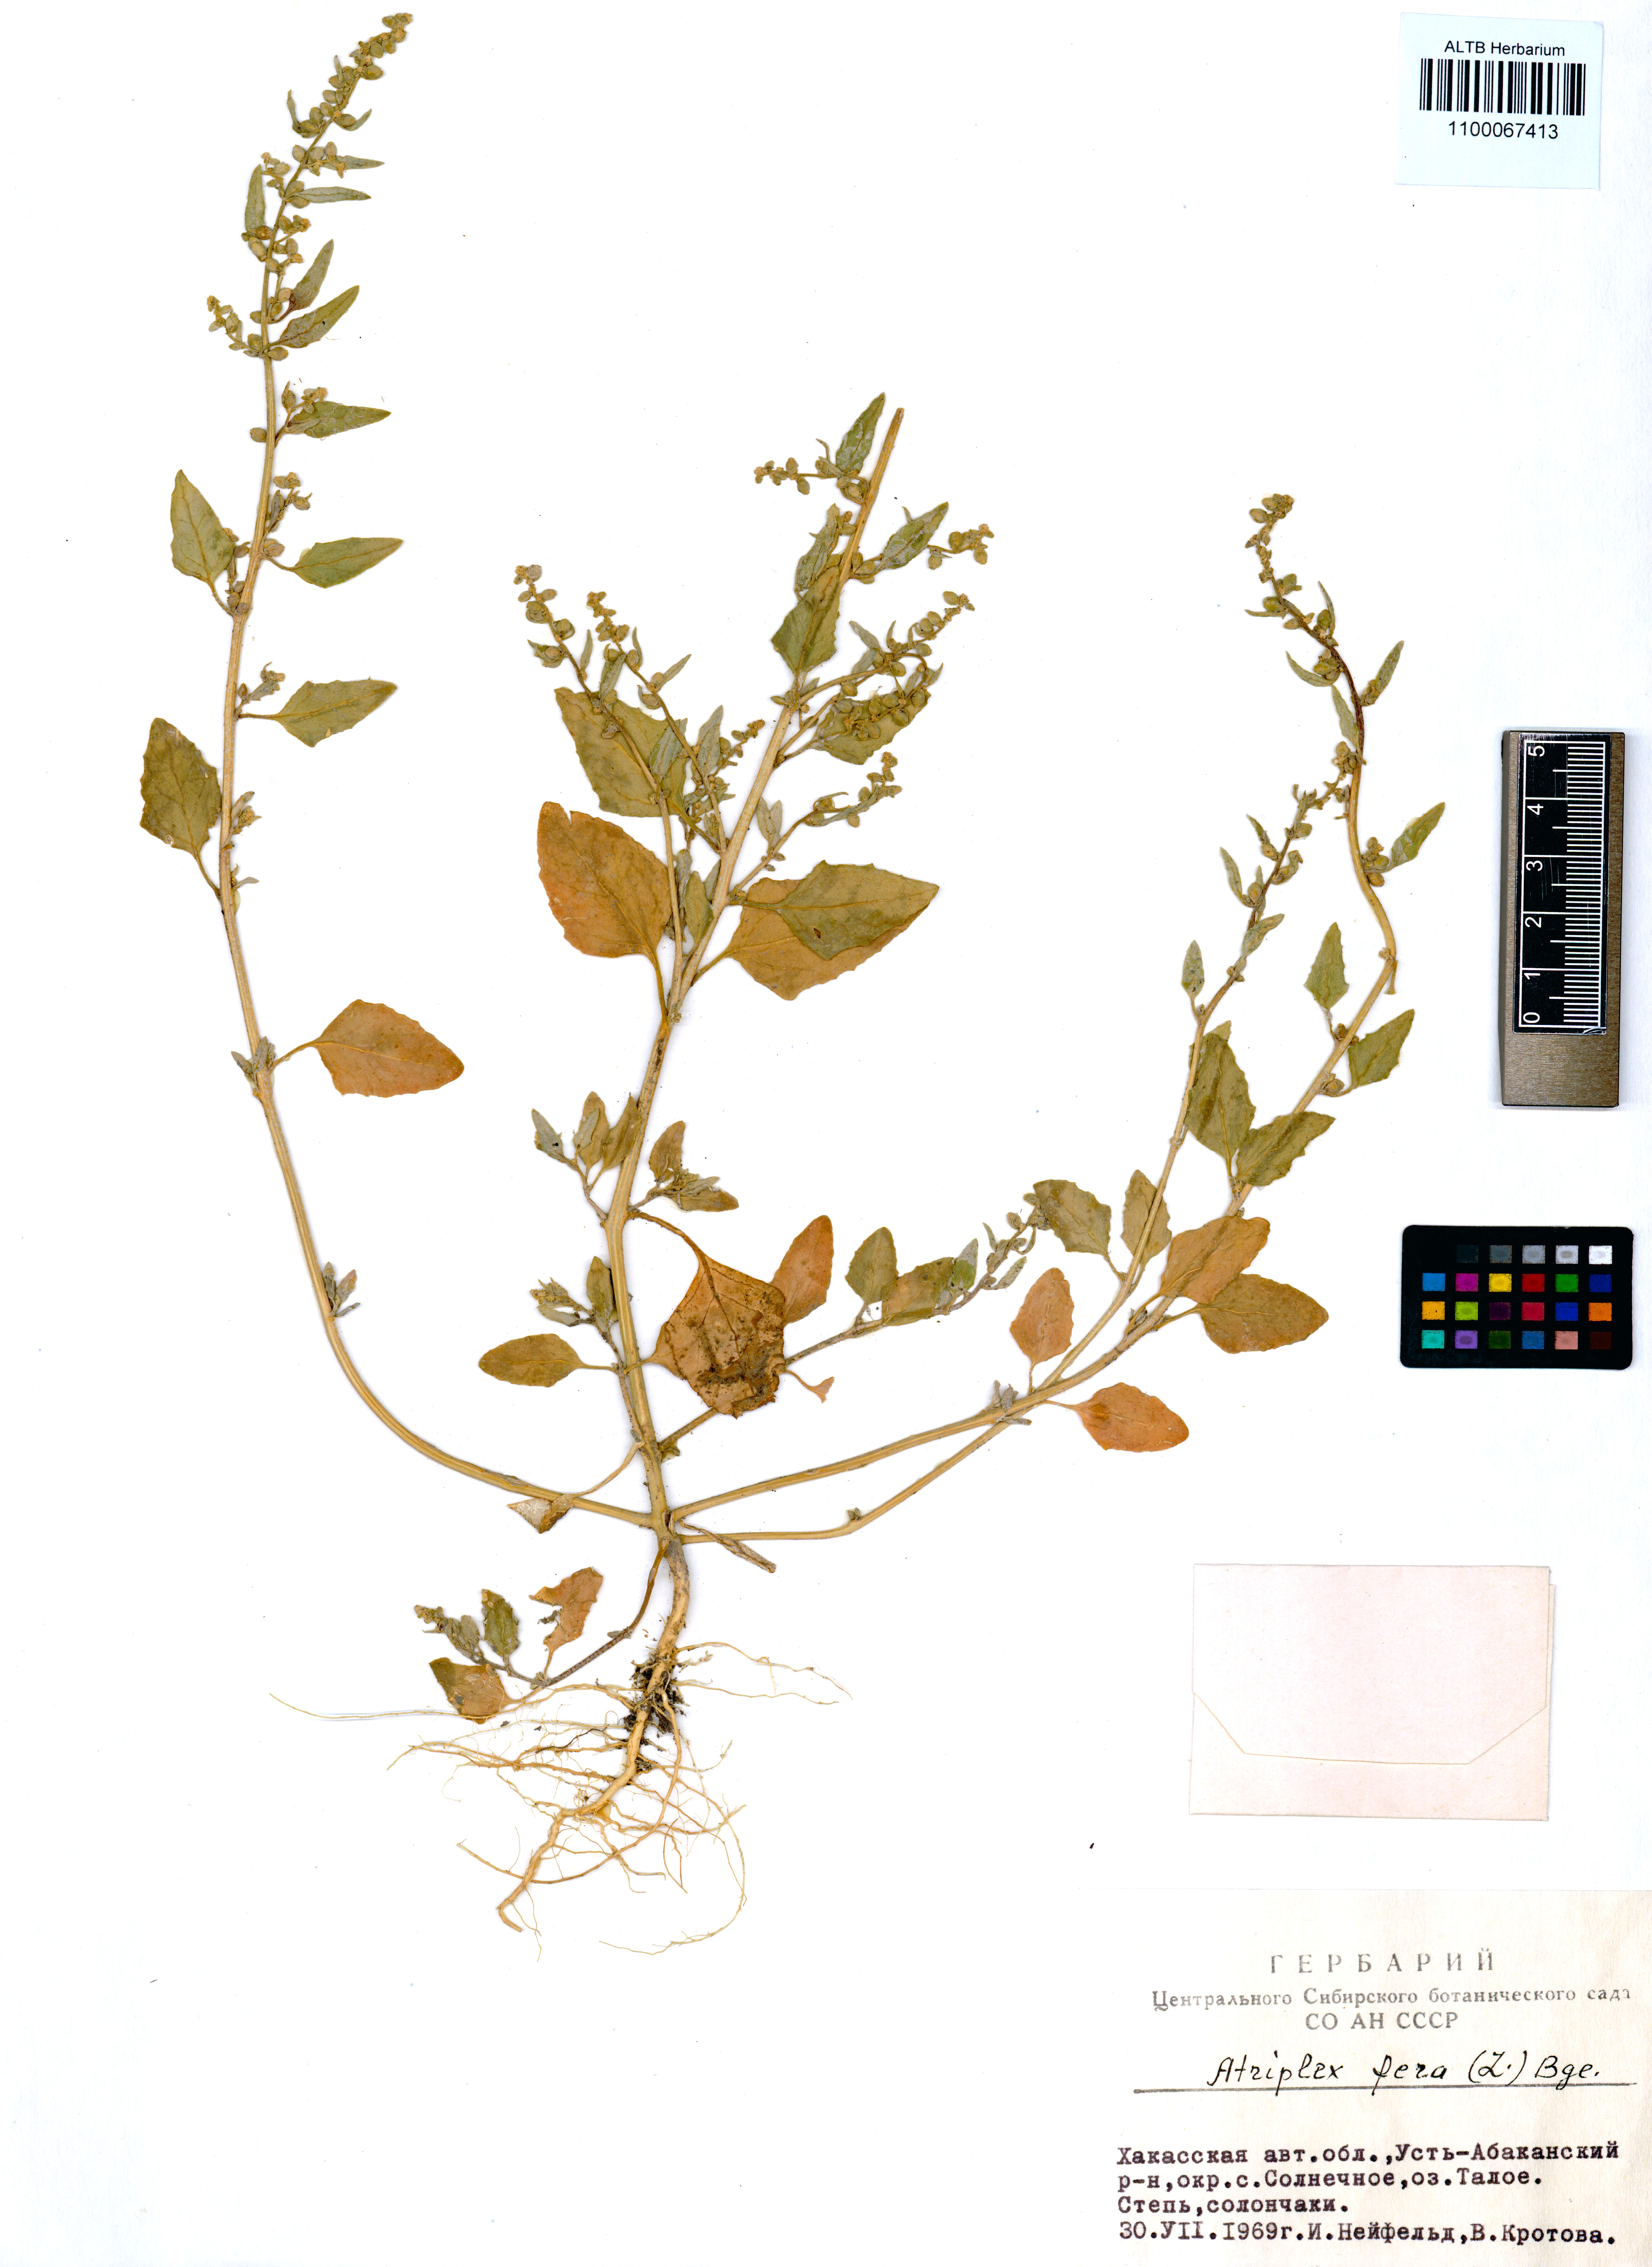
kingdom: Plantae
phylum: Tracheophyta
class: Magnoliopsida
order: Caryophyllales
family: Amaranthaceae
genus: Atriplex
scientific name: Atriplex fera
